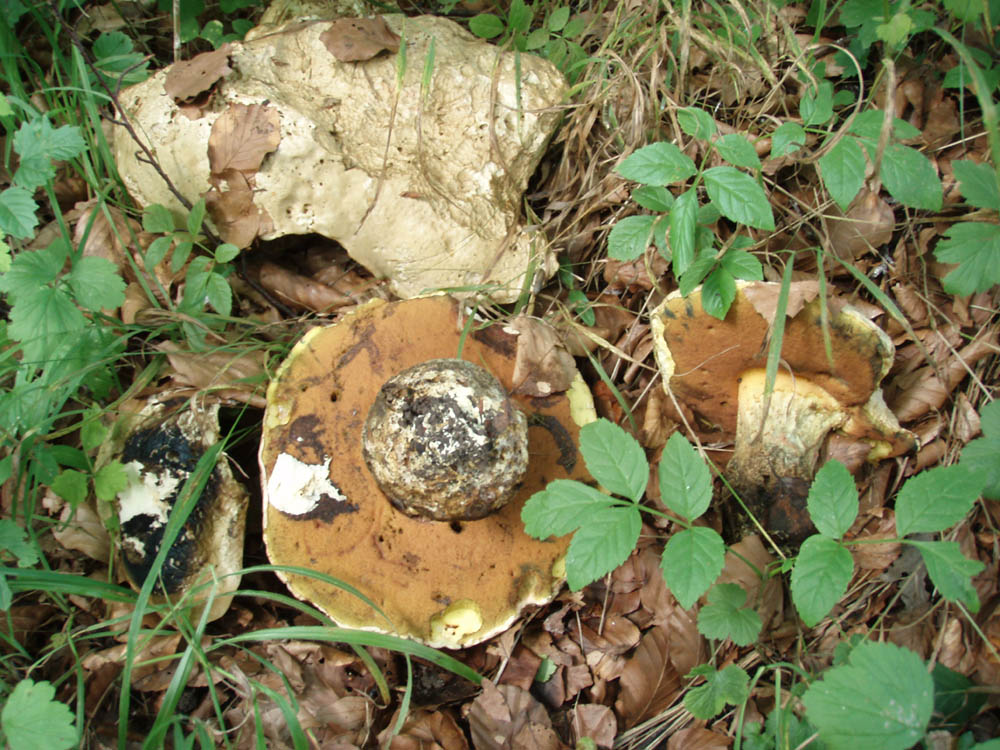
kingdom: Fungi
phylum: Basidiomycota
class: Agaricomycetes
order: Boletales
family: Boletaceae
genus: Rubroboletus
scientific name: Rubroboletus satanas
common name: Satans rørhat
